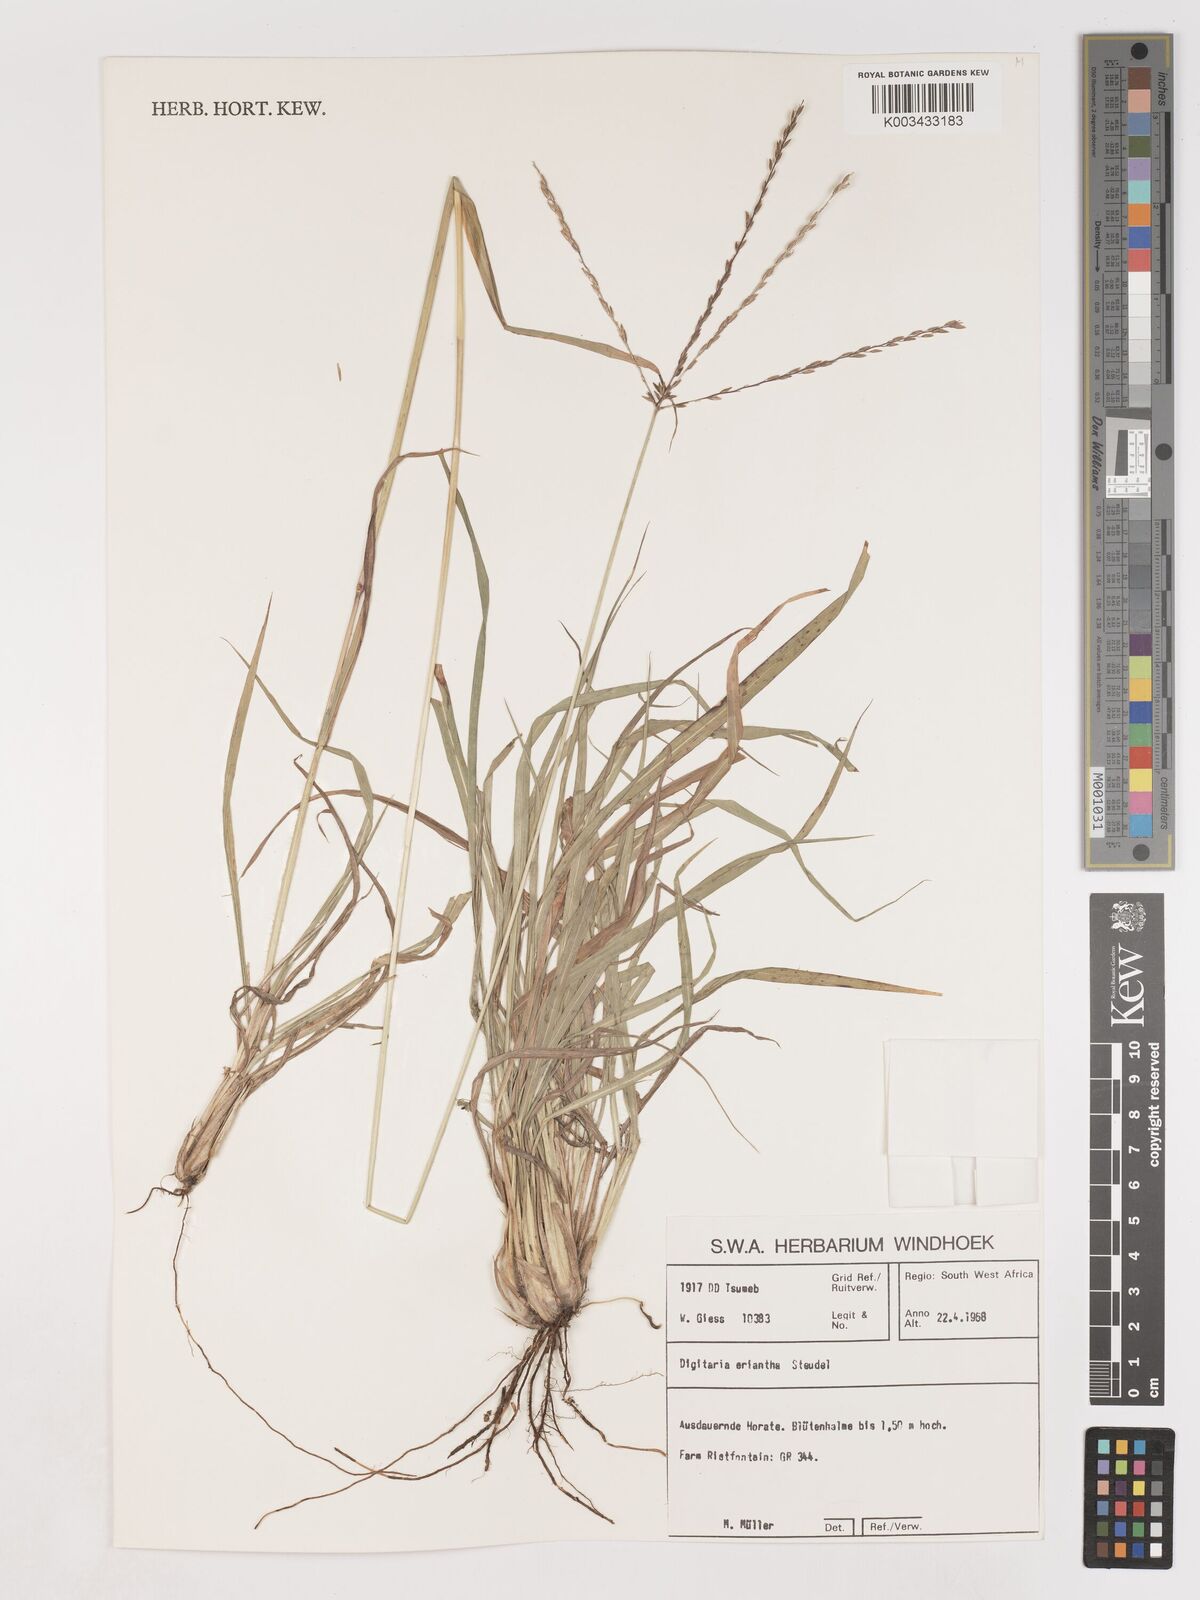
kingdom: Plantae
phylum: Tracheophyta
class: Liliopsida
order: Poales
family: Poaceae
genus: Digitaria
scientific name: Digitaria eriantha
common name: Digitgrass
